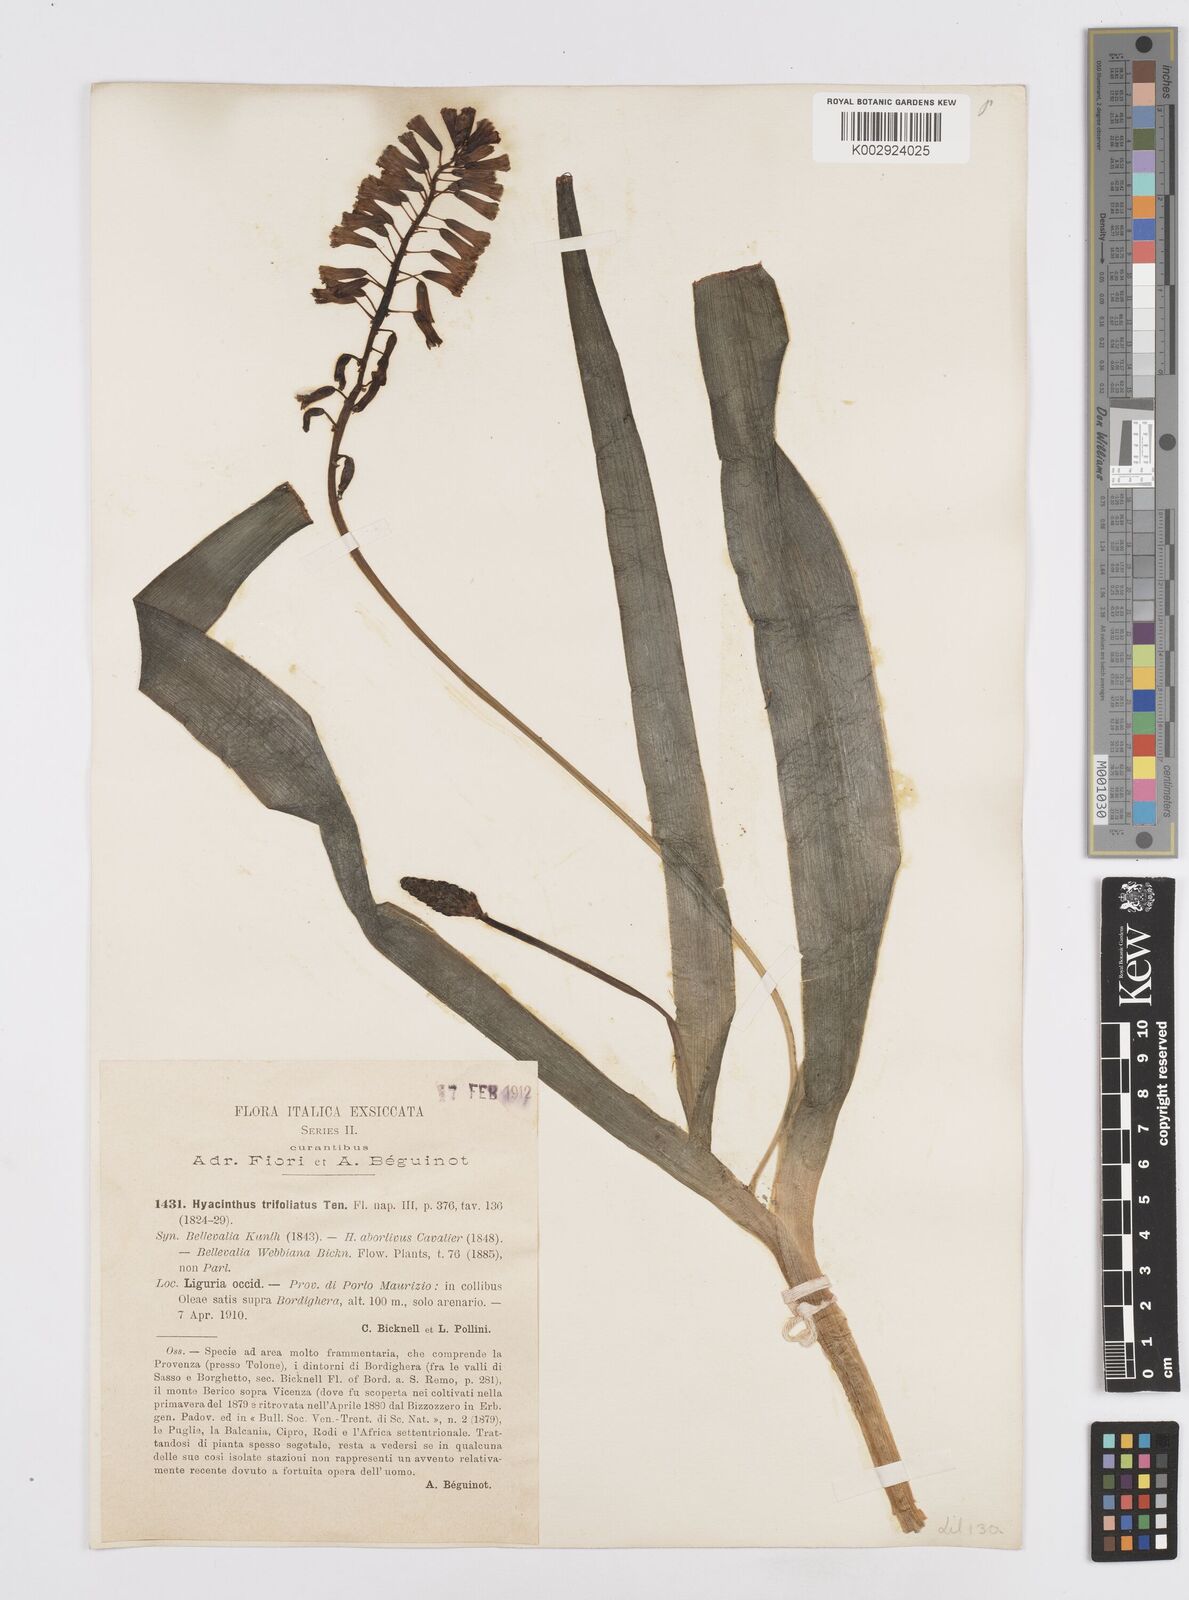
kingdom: Plantae
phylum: Tracheophyta
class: Liliopsida
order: Asparagales
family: Asparagaceae
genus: Bellevalia
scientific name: Bellevalia trifoliata
